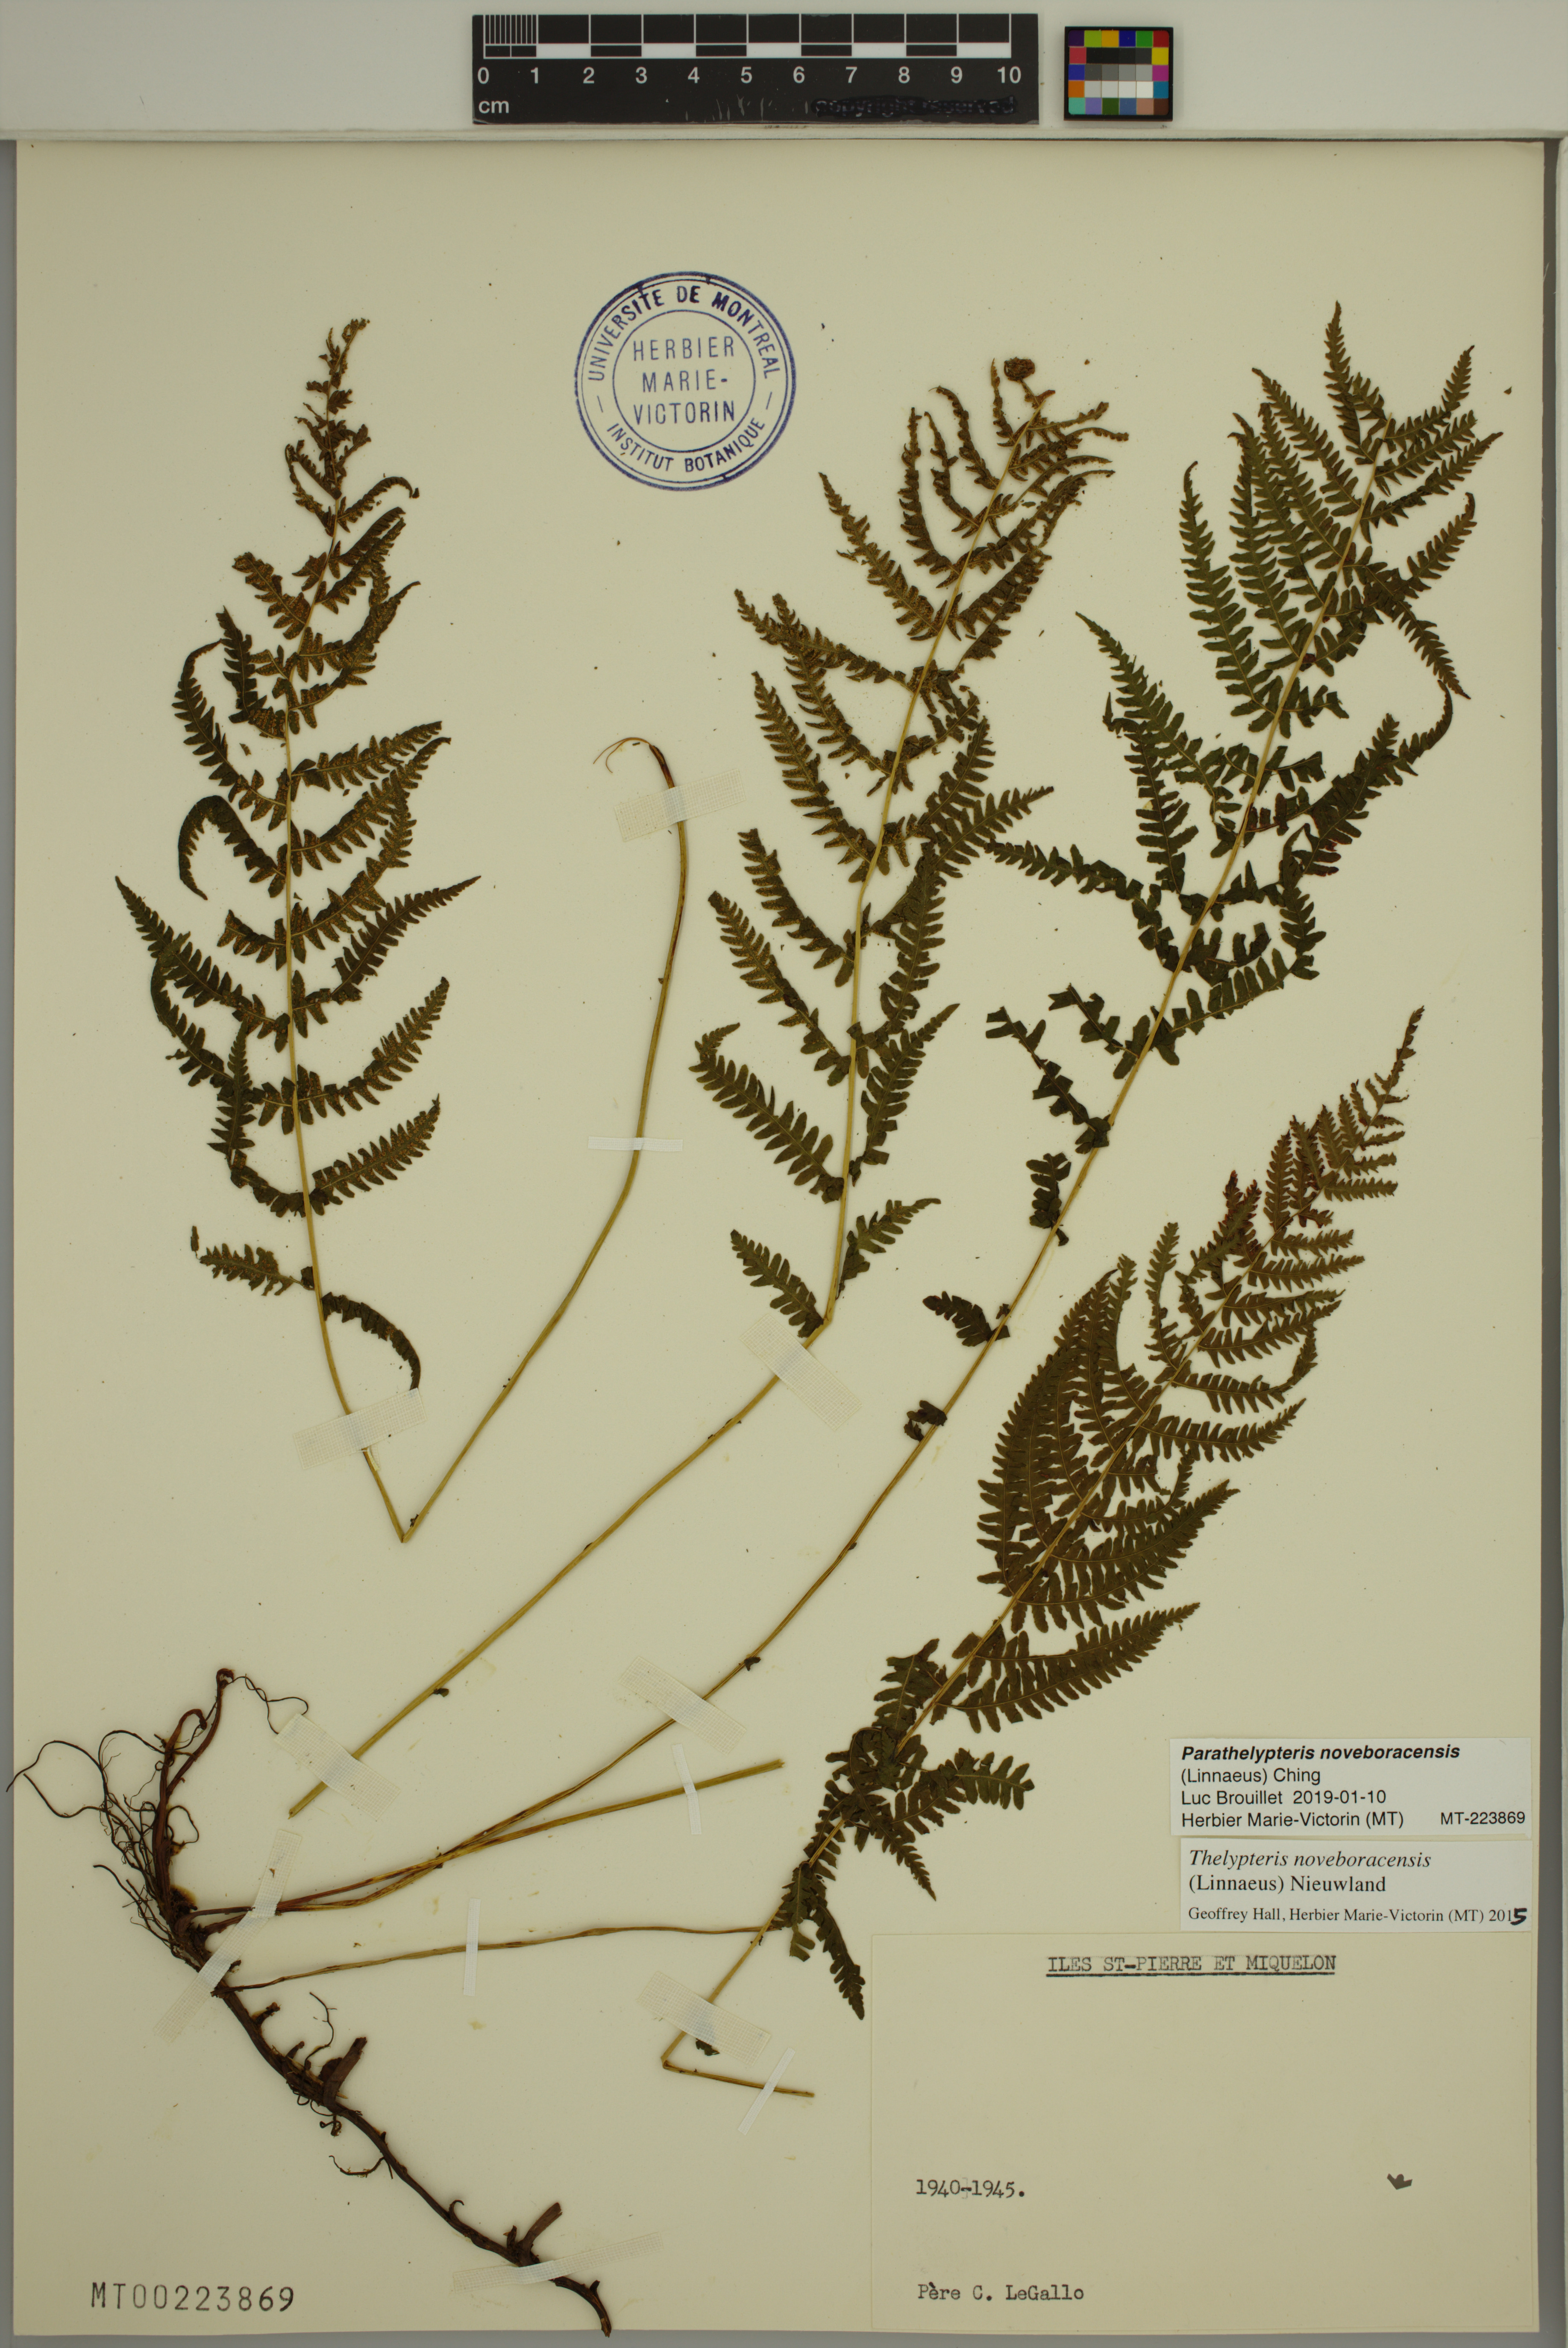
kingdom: Plantae
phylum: Tracheophyta
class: Polypodiopsida
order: Polypodiales
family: Thelypteridaceae
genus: Amauropelta
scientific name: Amauropelta noveboracensis
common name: New york fern
